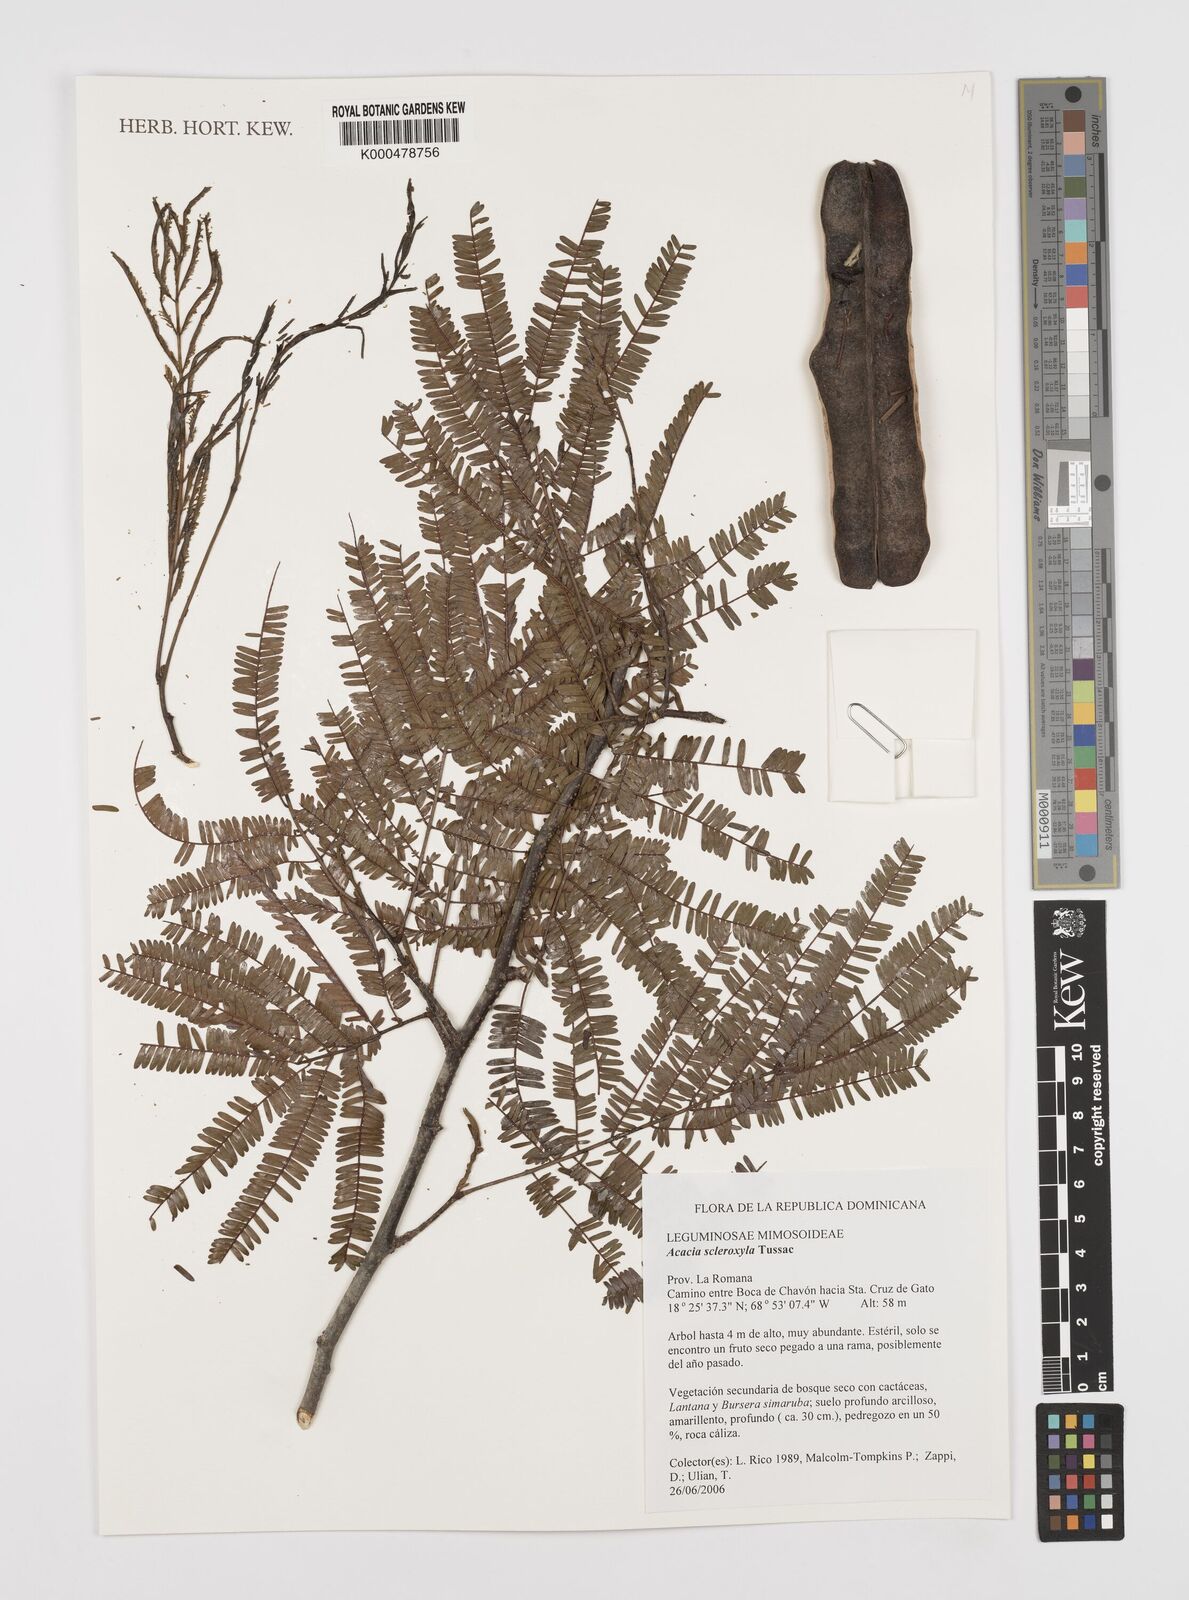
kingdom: Plantae
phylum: Tracheophyta
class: Magnoliopsida
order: Fabales
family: Fabaceae
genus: Acacia
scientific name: Acacia
